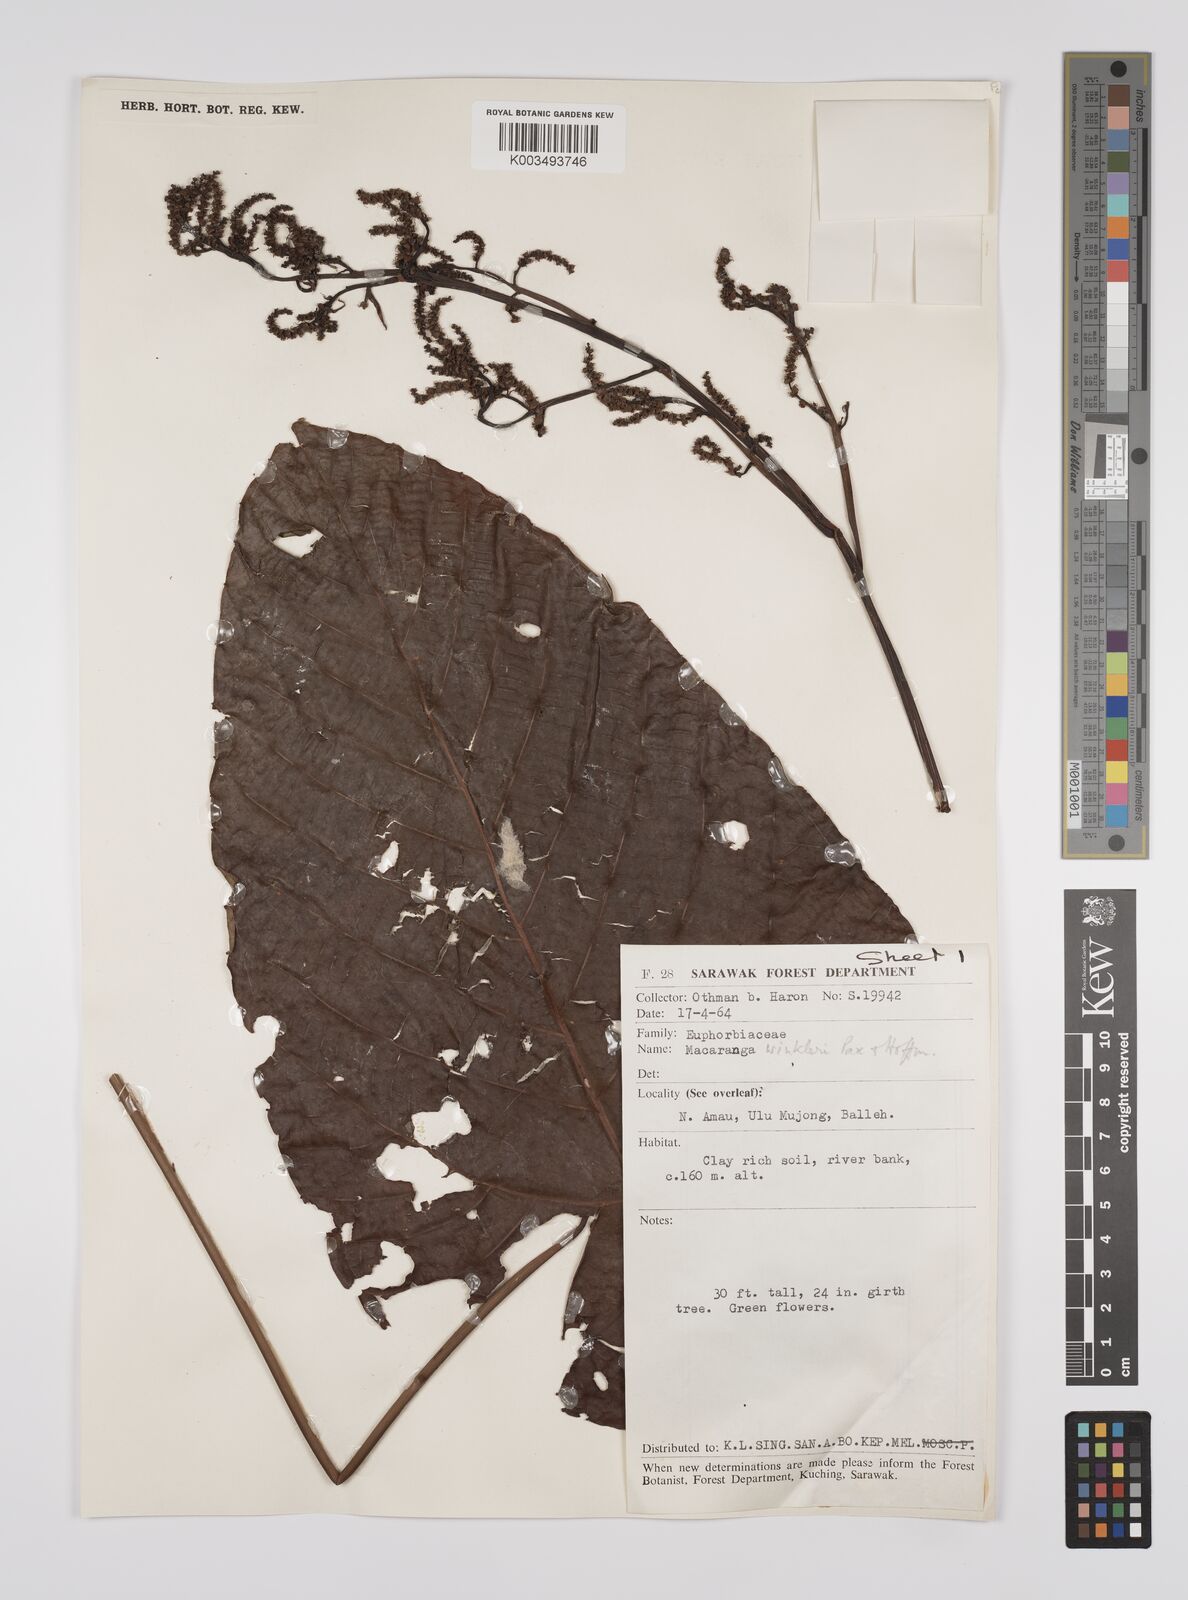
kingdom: Plantae
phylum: Tracheophyta
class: Magnoliopsida
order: Malpighiales
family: Euphorbiaceae
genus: Macaranga
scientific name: Macaranga winkleri
